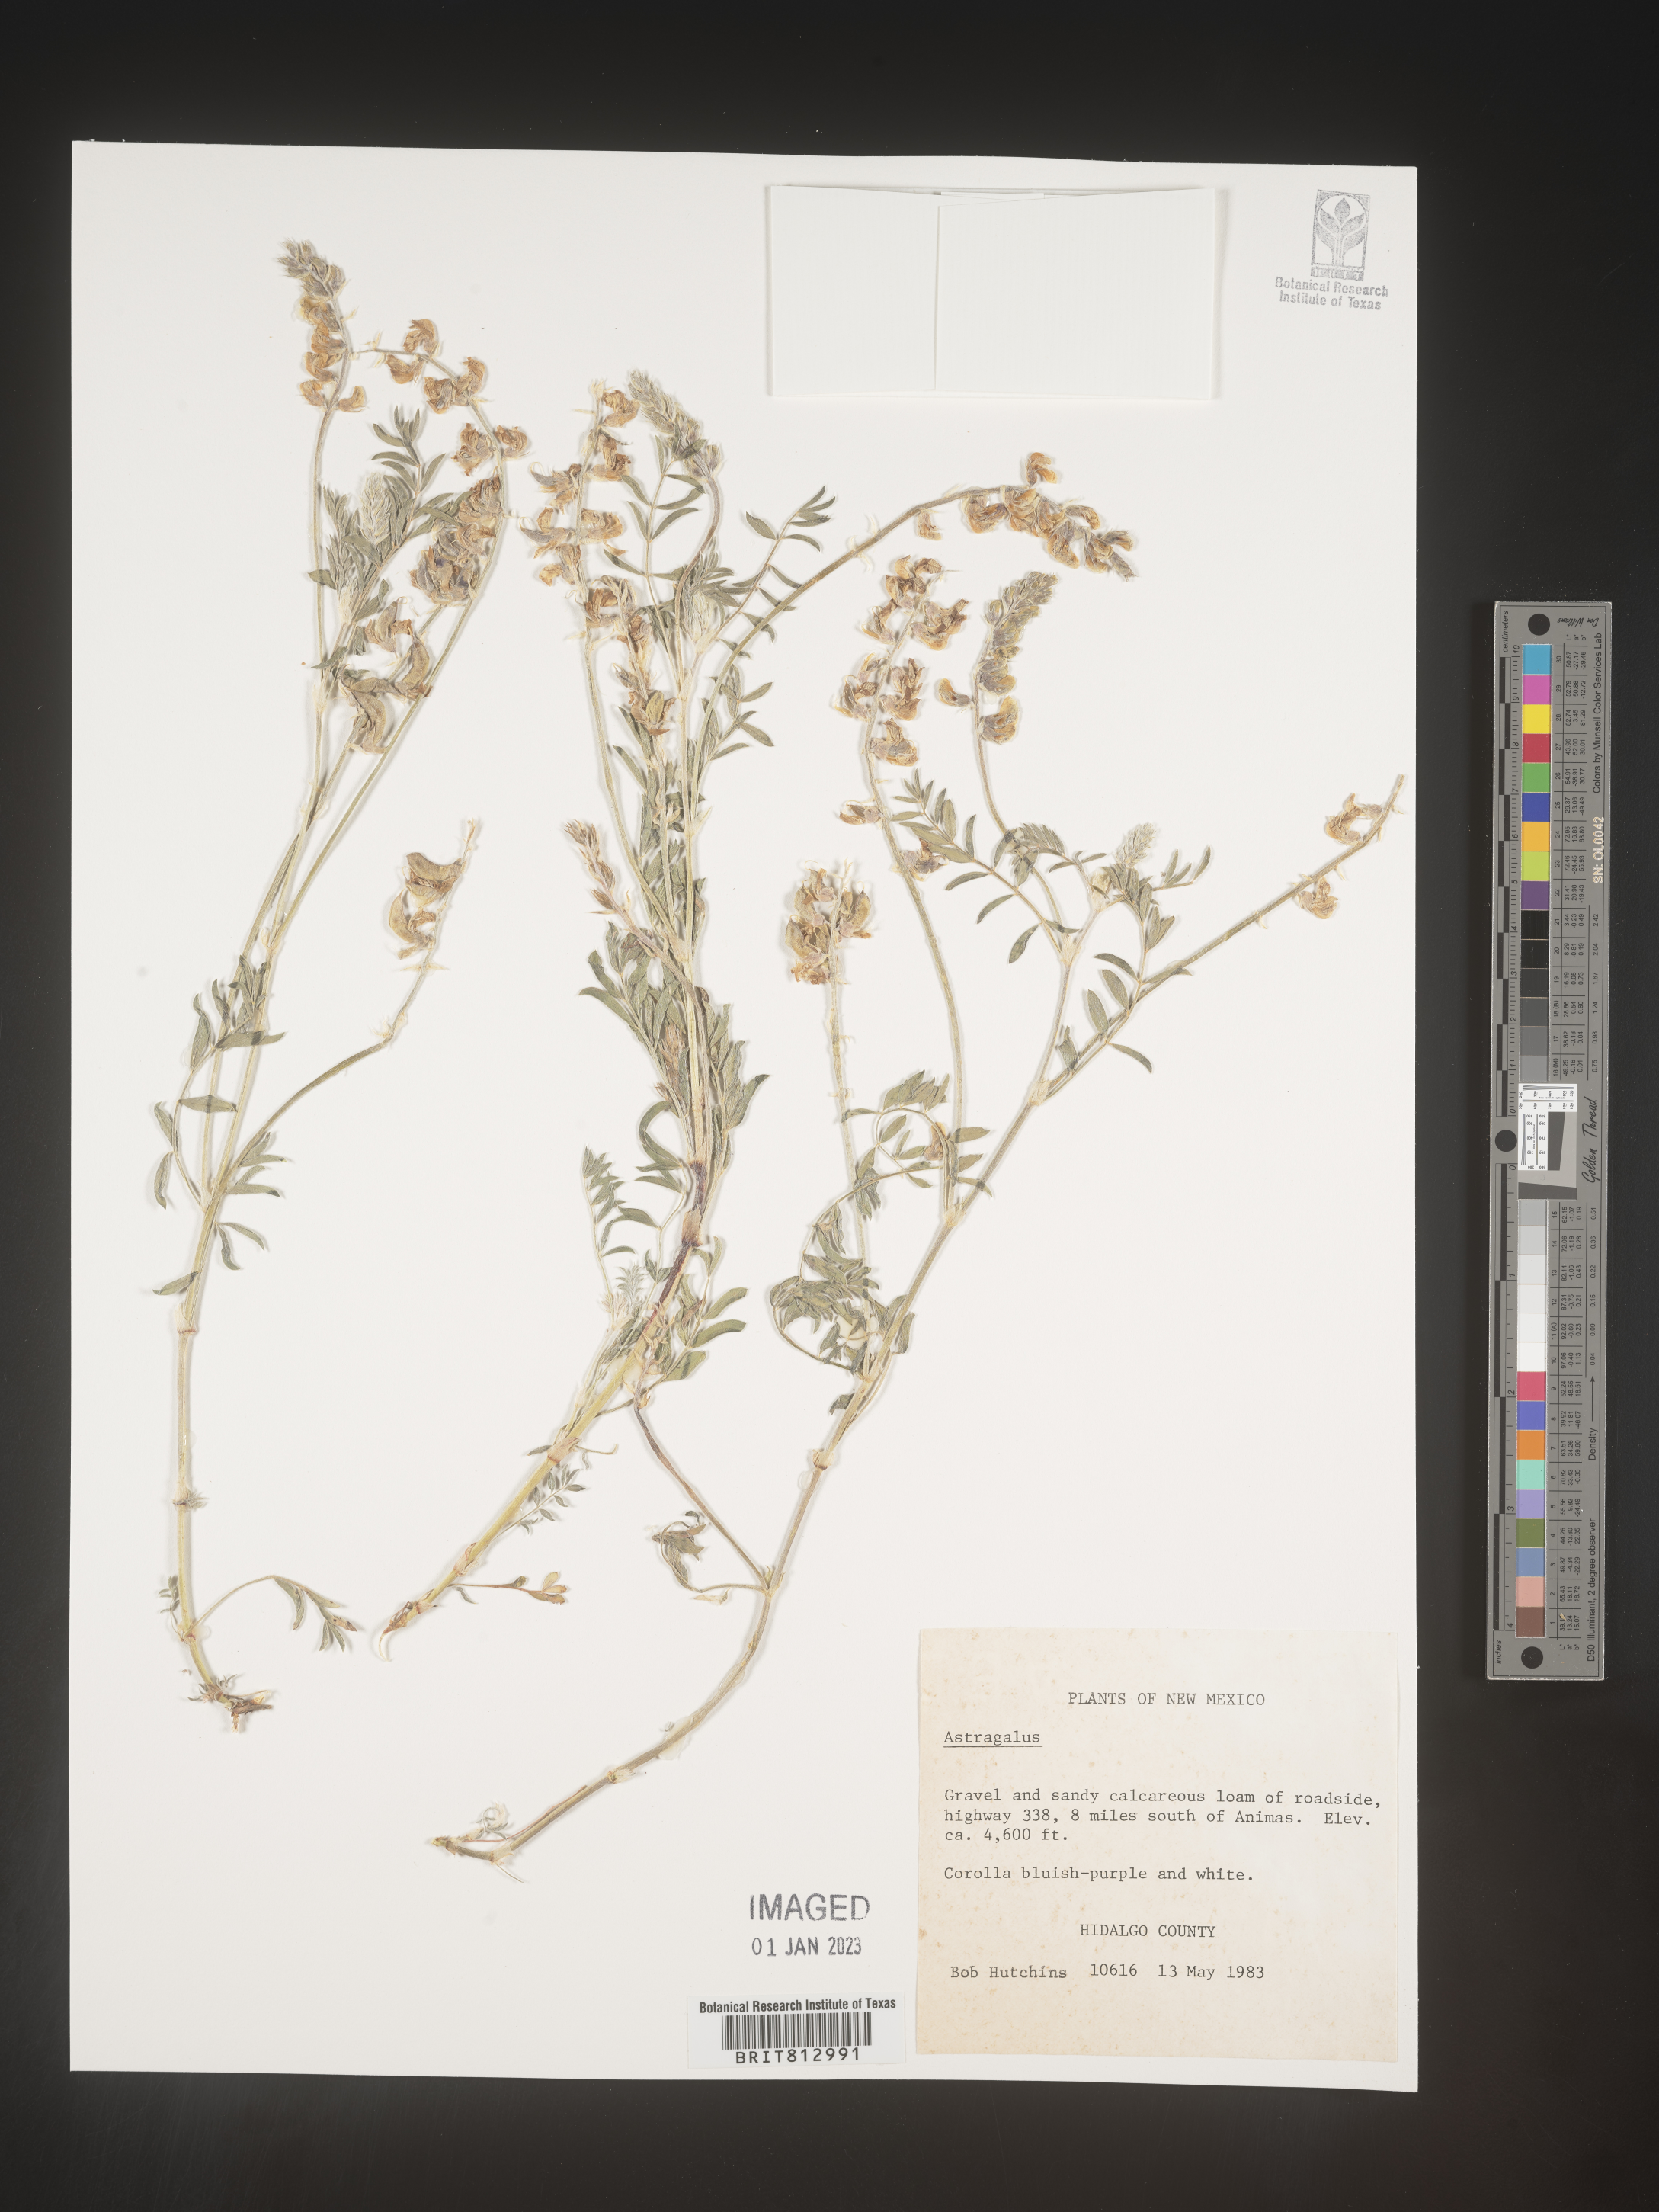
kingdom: Plantae
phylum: Tracheophyta
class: Magnoliopsida
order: Fabales
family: Fabaceae
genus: Astragalus
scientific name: Astragalus
